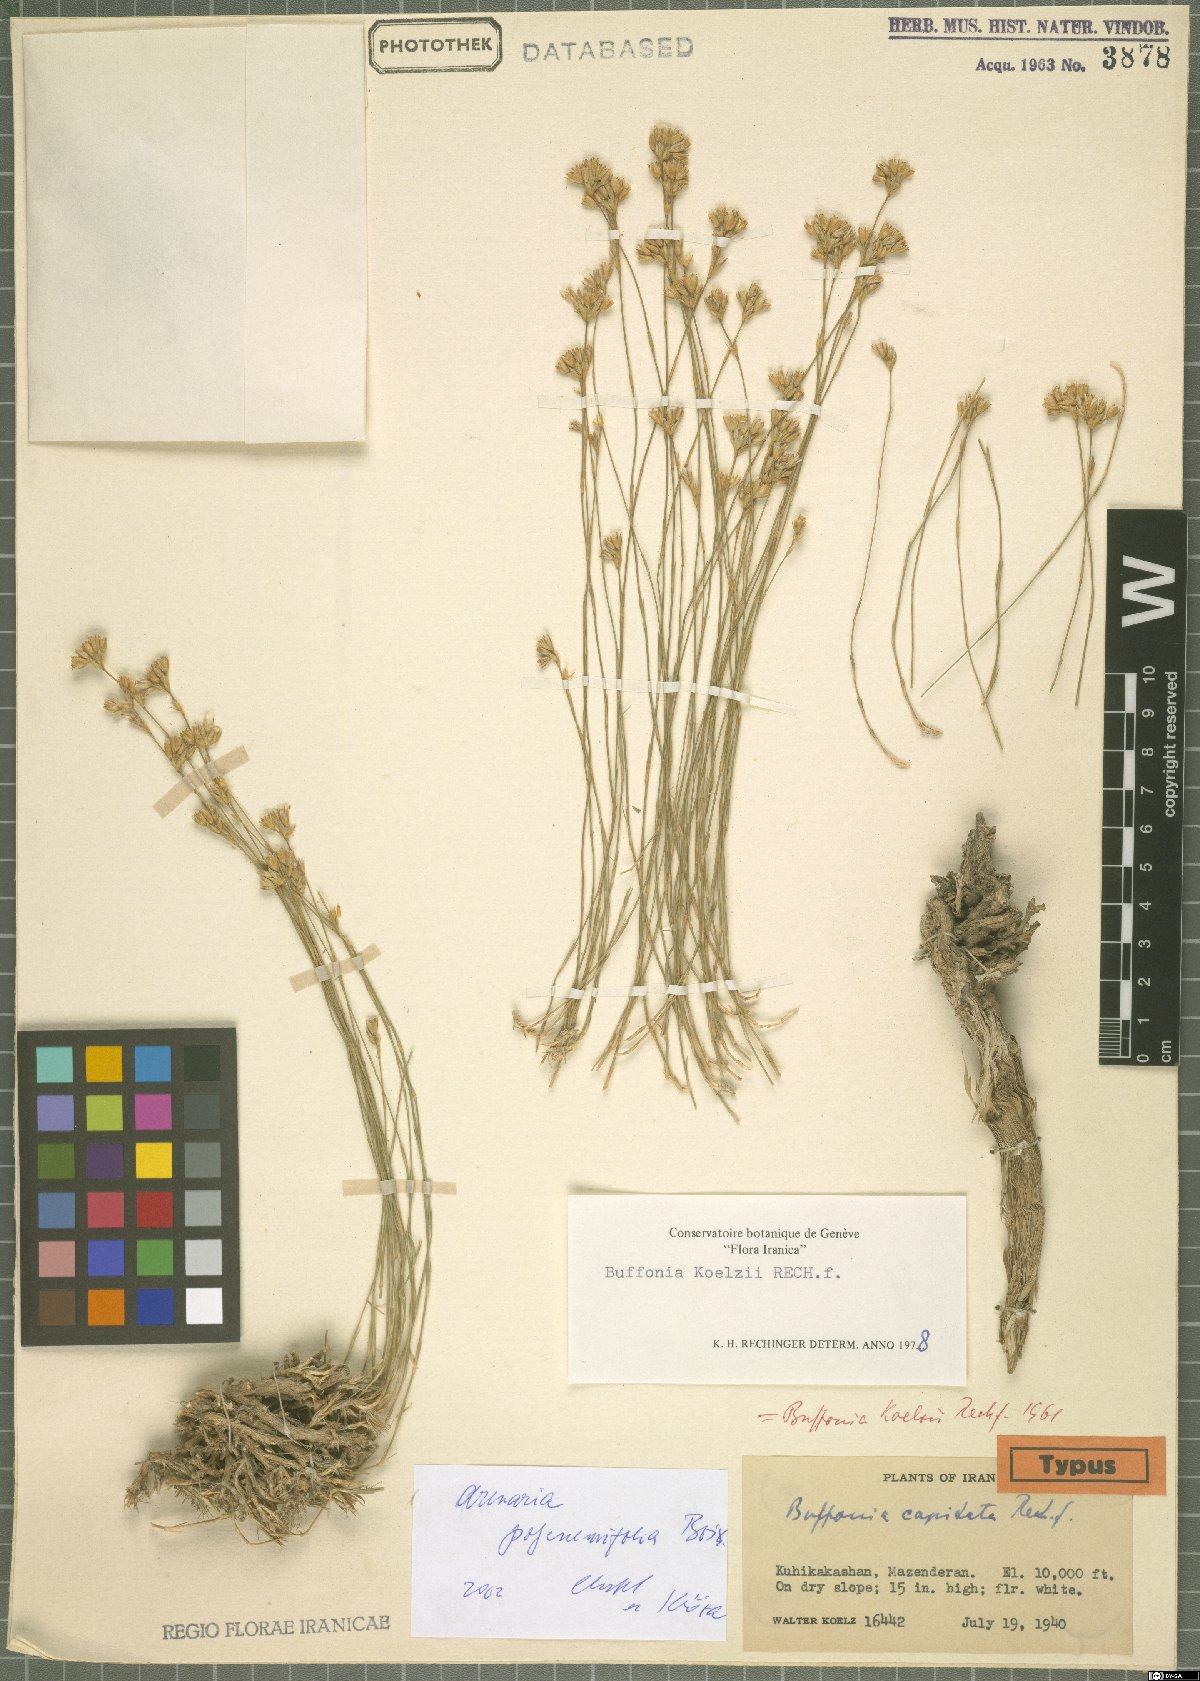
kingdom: Plantae
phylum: Tracheophyta
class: Magnoliopsida
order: Caryophyllales
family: Caryophyllaceae
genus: Eremogone
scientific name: Eremogone polycnemifolia
